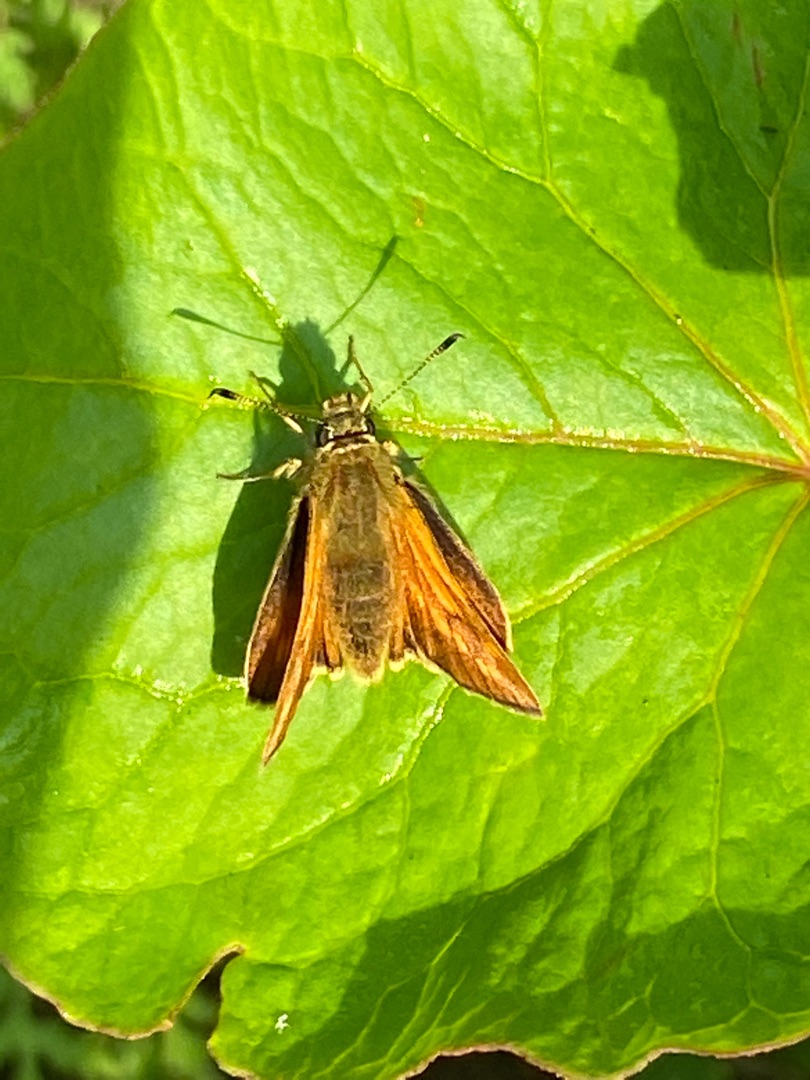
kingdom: Animalia
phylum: Arthropoda
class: Insecta
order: Lepidoptera
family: Hesperiidae
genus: Ochlodes
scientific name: Ochlodes venata
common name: Stor bredpande
